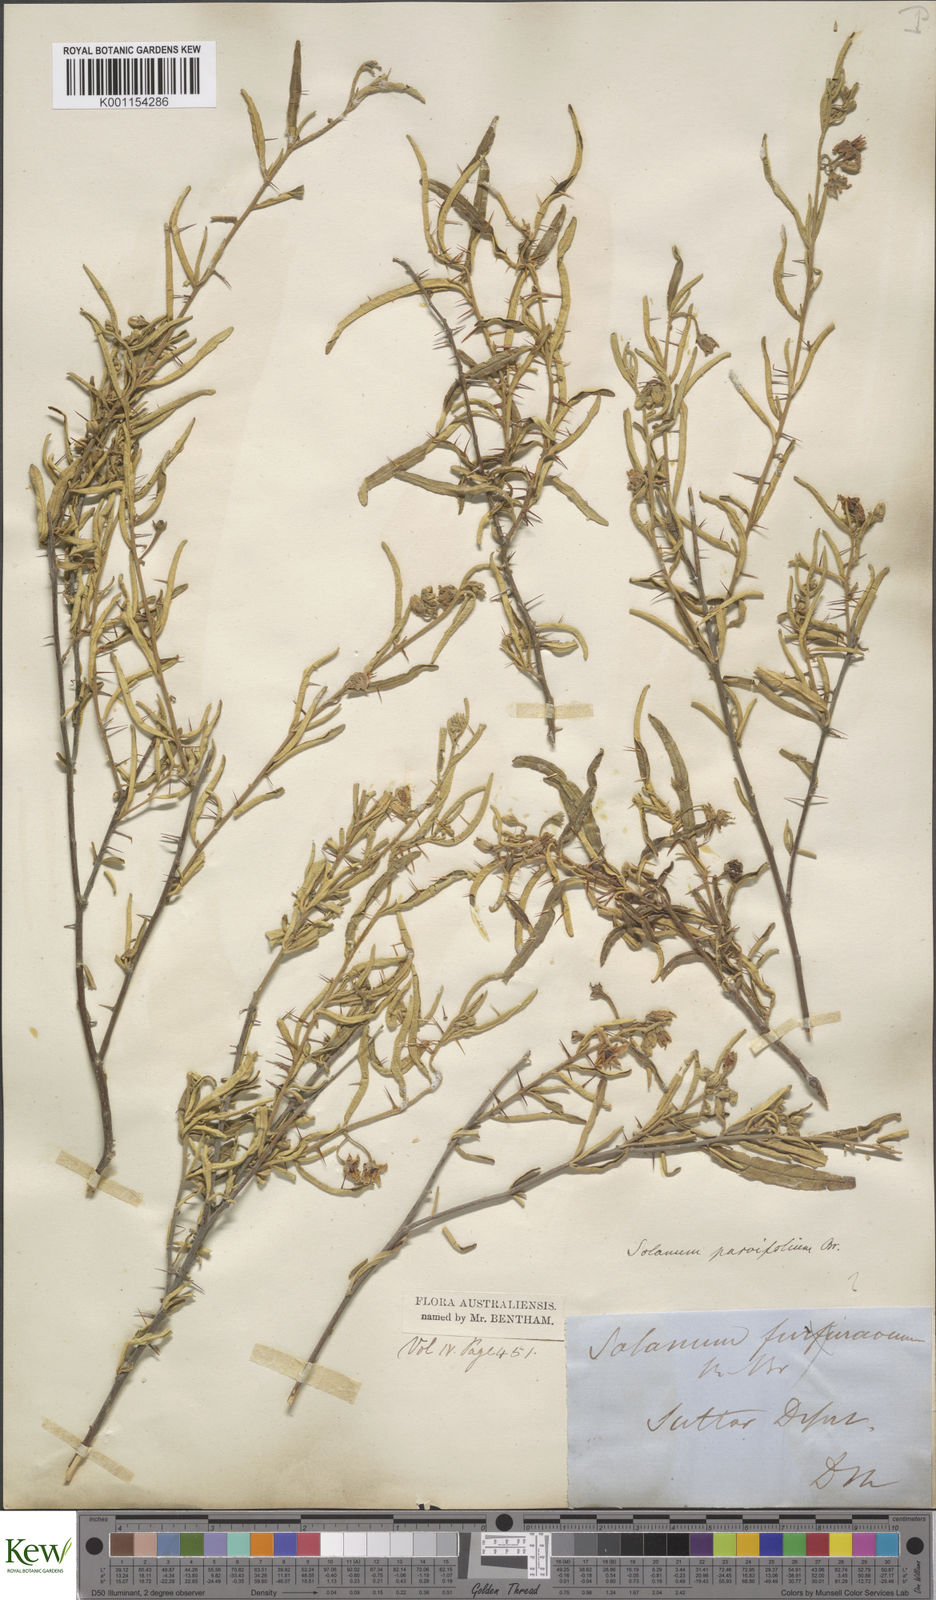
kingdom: Plantae
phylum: Tracheophyta
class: Magnoliopsida
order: Solanales
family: Solanaceae
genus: Solanum
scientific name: Solanum parvifolium
